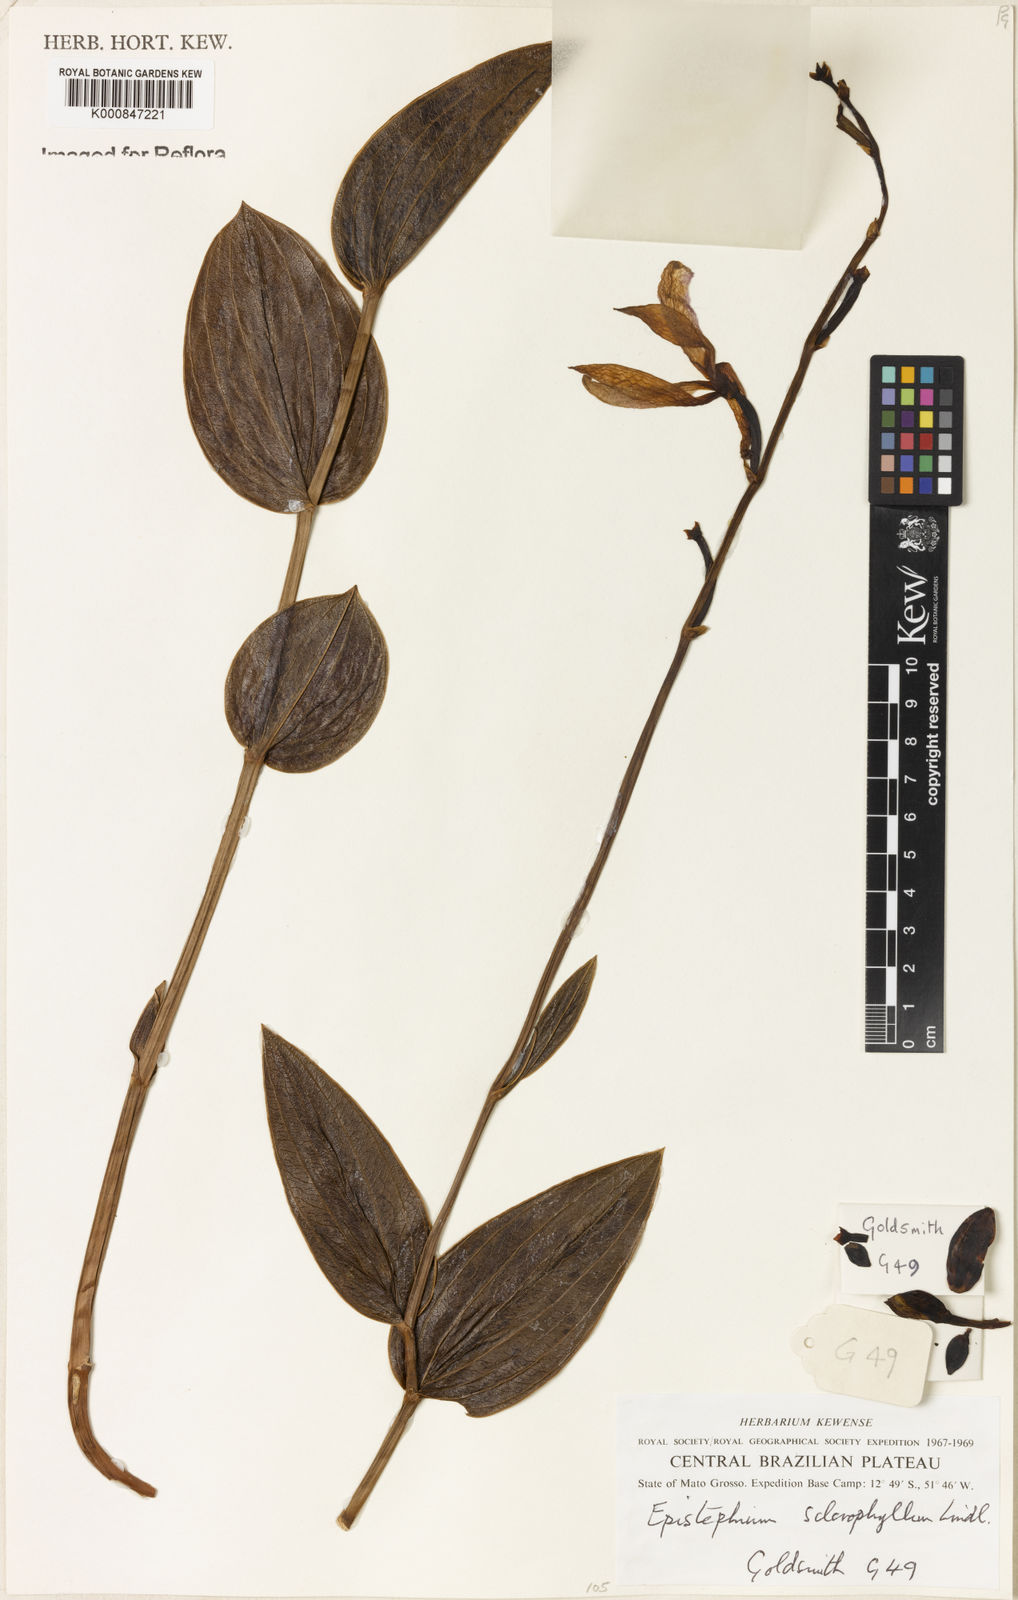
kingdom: Plantae
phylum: Tracheophyta
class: Liliopsida
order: Asparagales
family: Orchidaceae
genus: Epistephium
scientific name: Epistephium sclerophyllum
